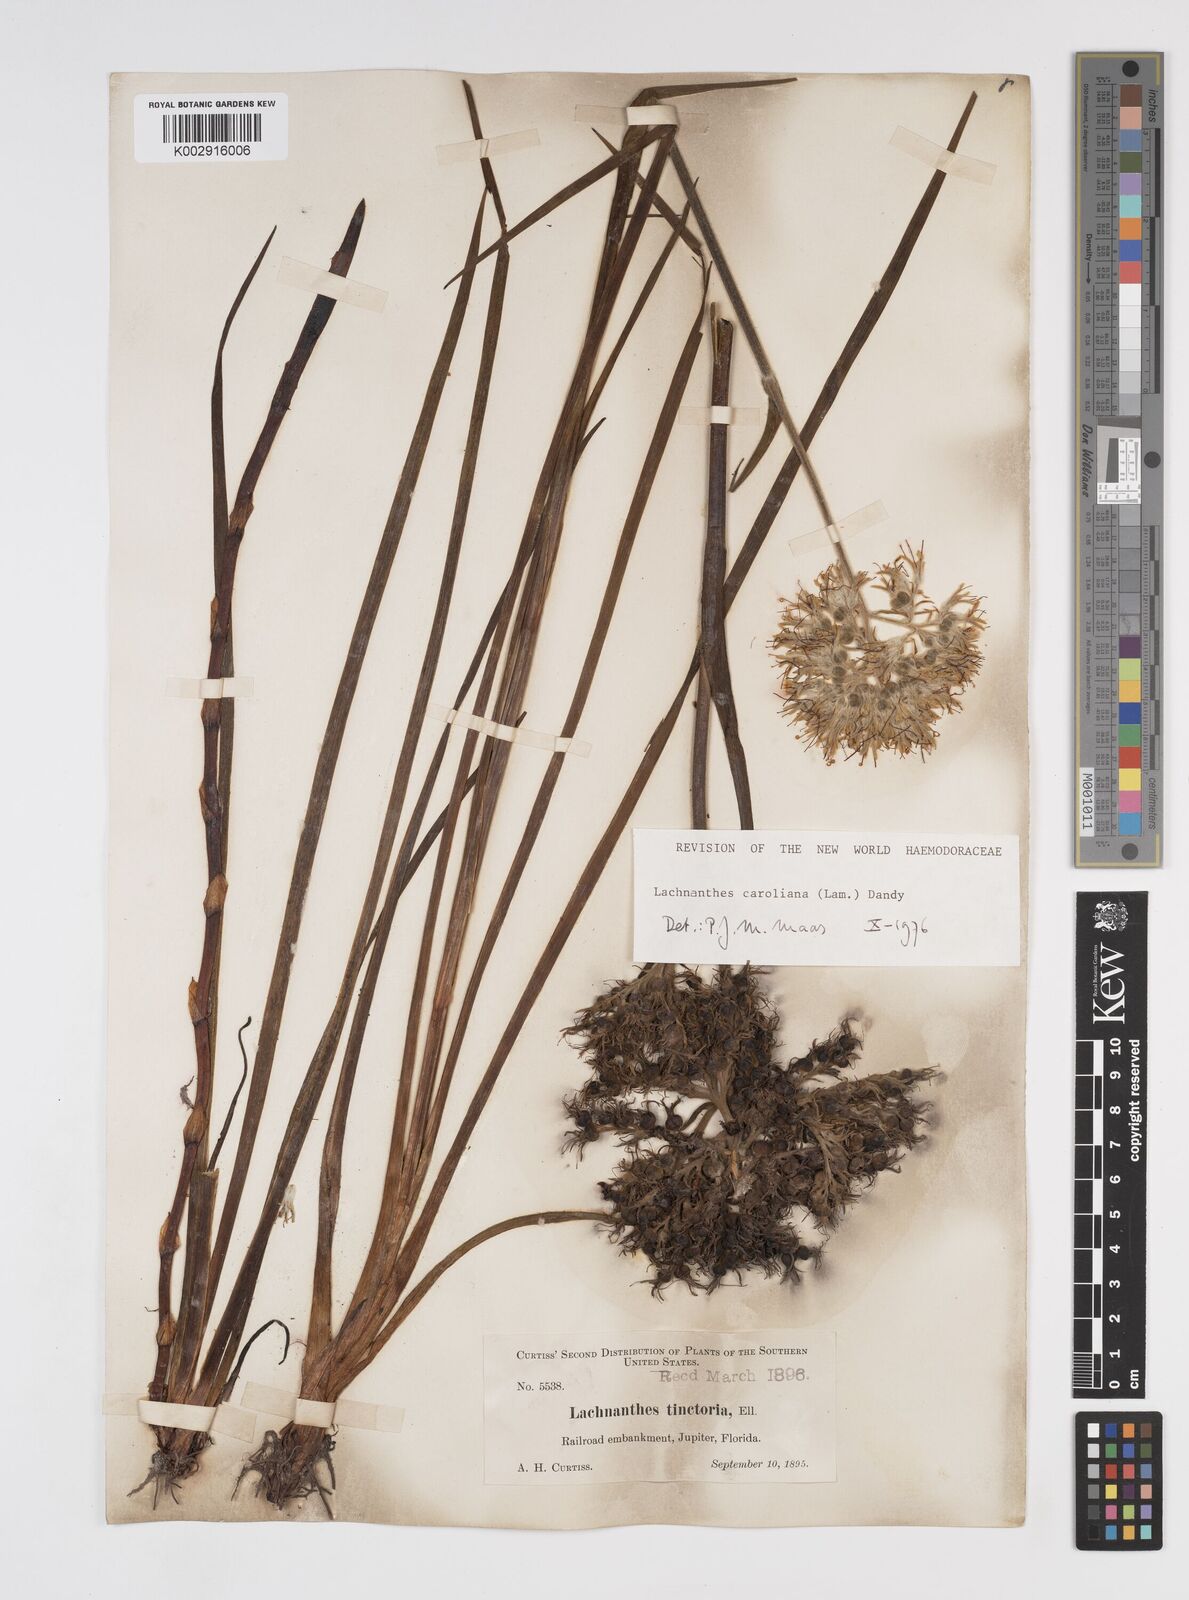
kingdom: Plantae
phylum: Tracheophyta
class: Liliopsida
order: Commelinales
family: Haemodoraceae
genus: Lachnanthes
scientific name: Lachnanthes caroliniana
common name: Carolina redroot
